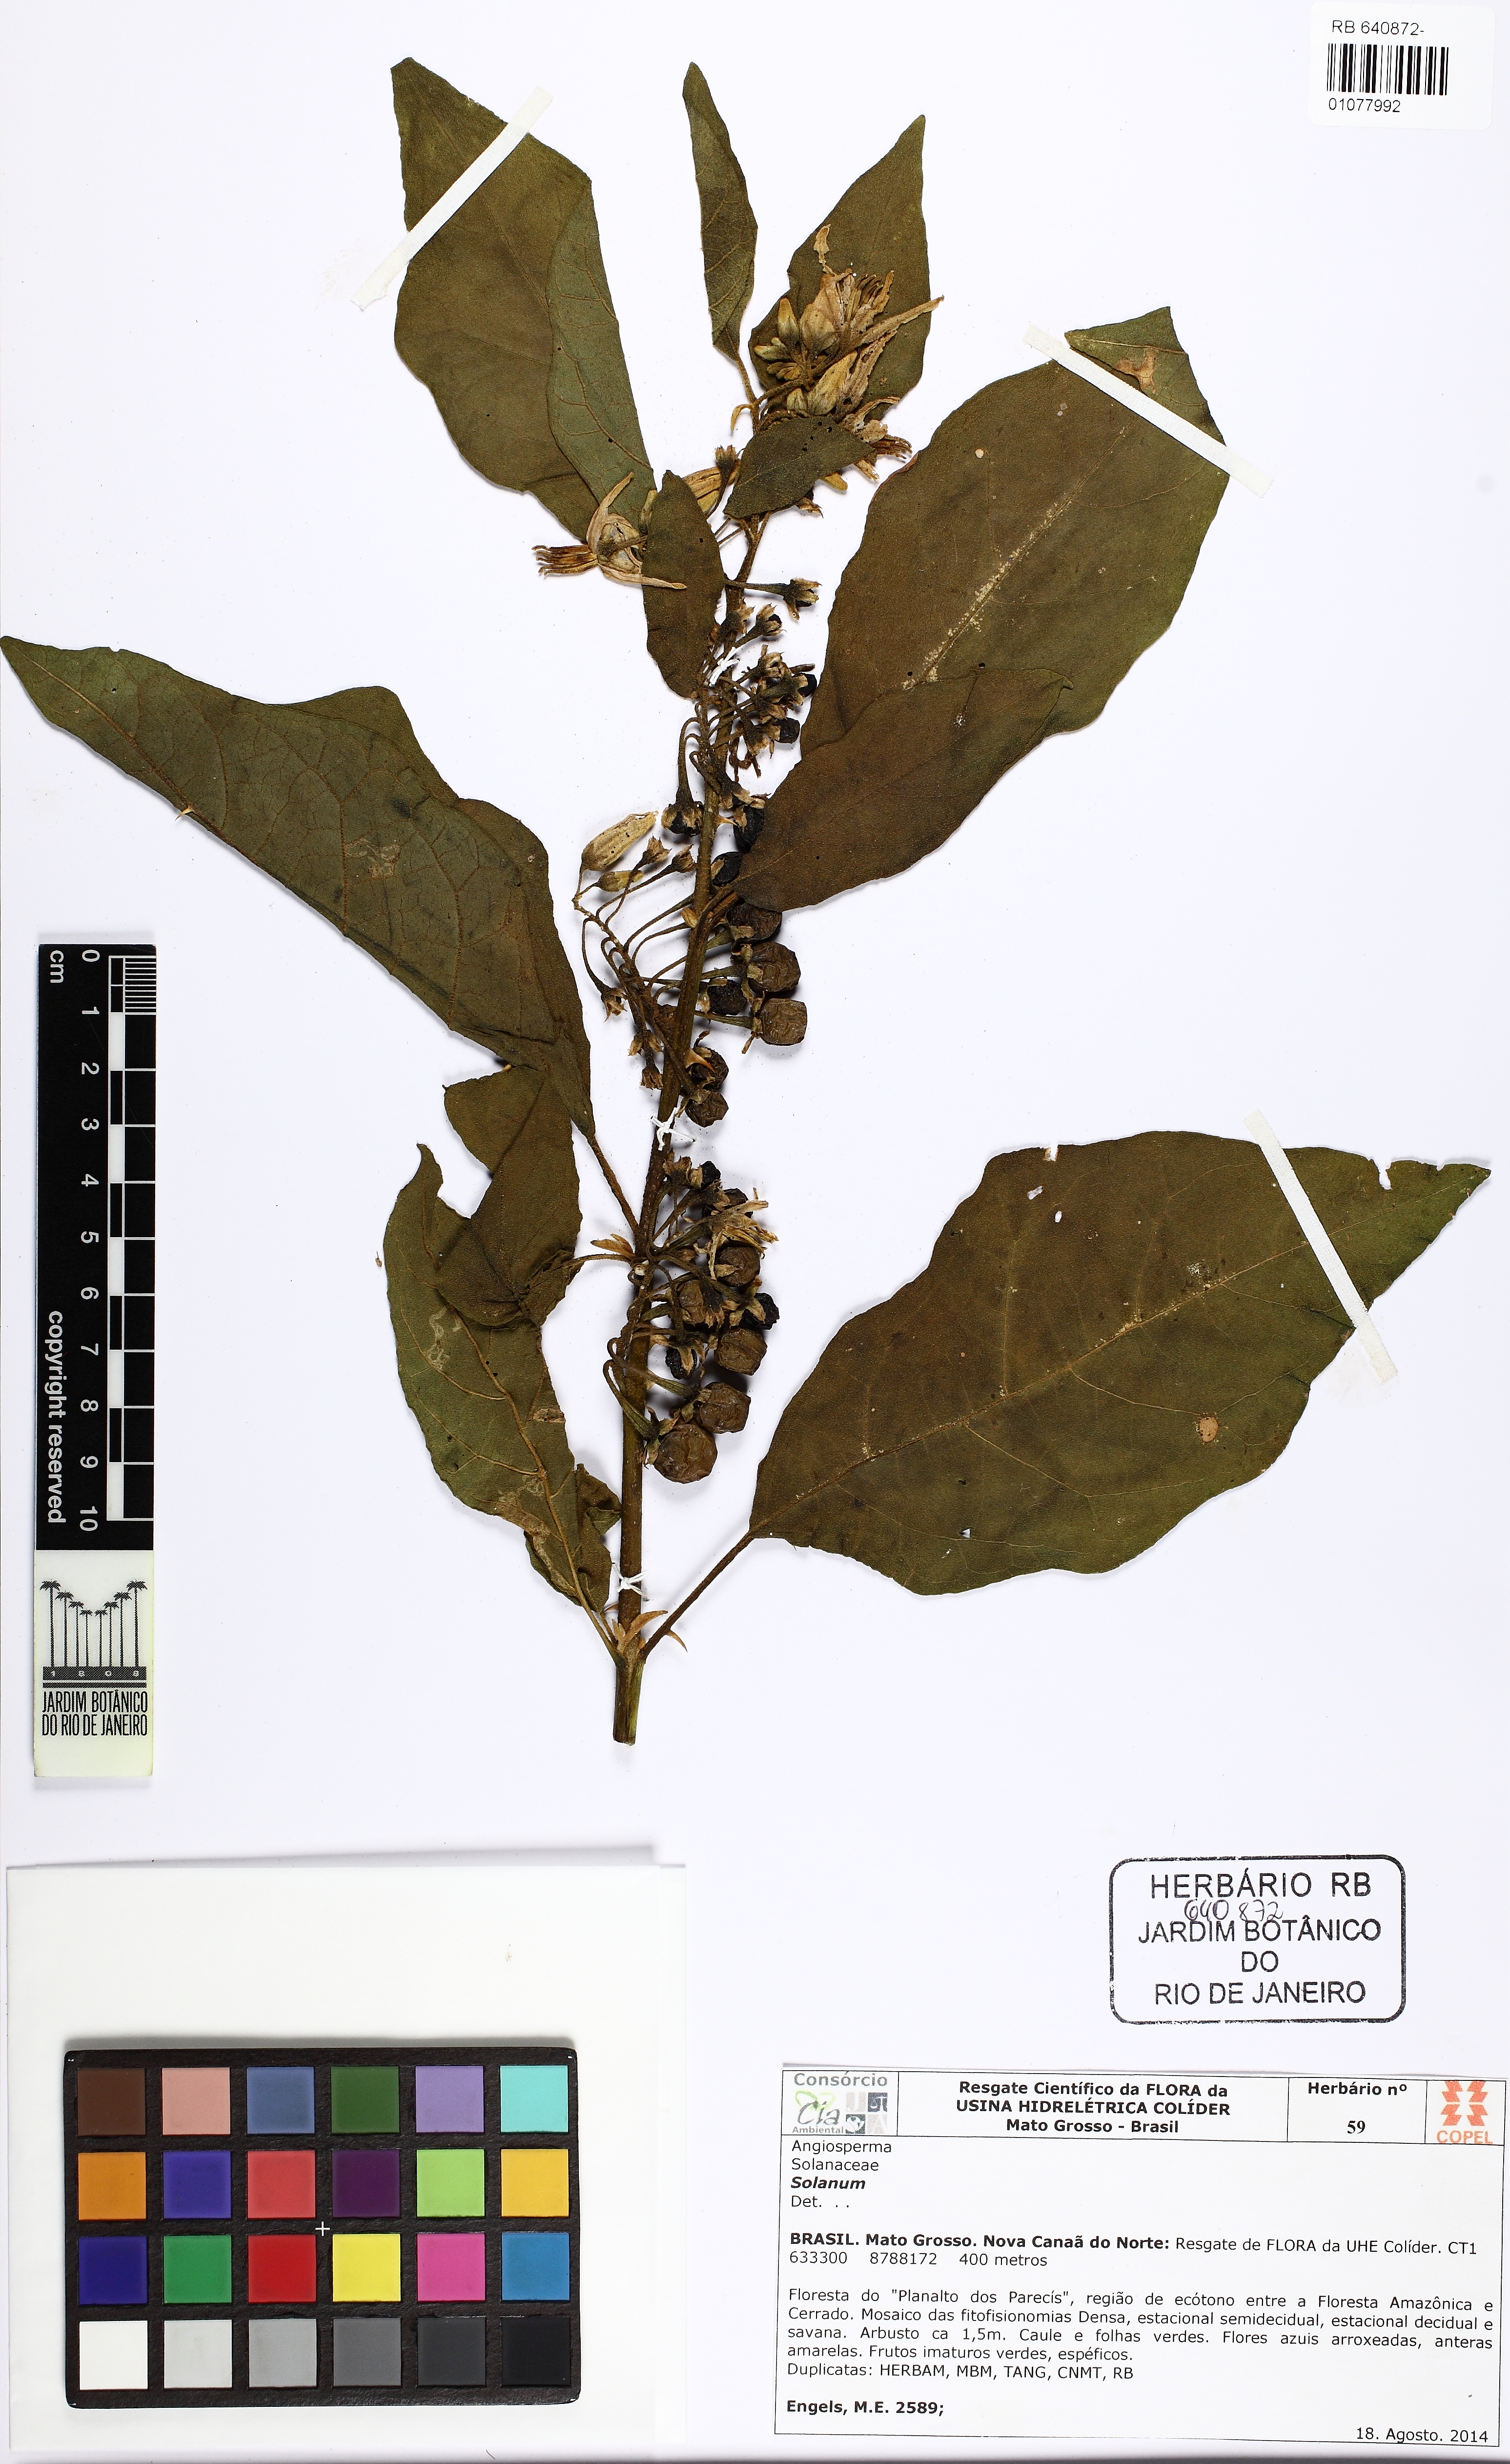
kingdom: Plantae
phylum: Tracheophyta
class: Magnoliopsida
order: Solanales
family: Solanaceae
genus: Solanum
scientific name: Solanum poinsettiifolium
